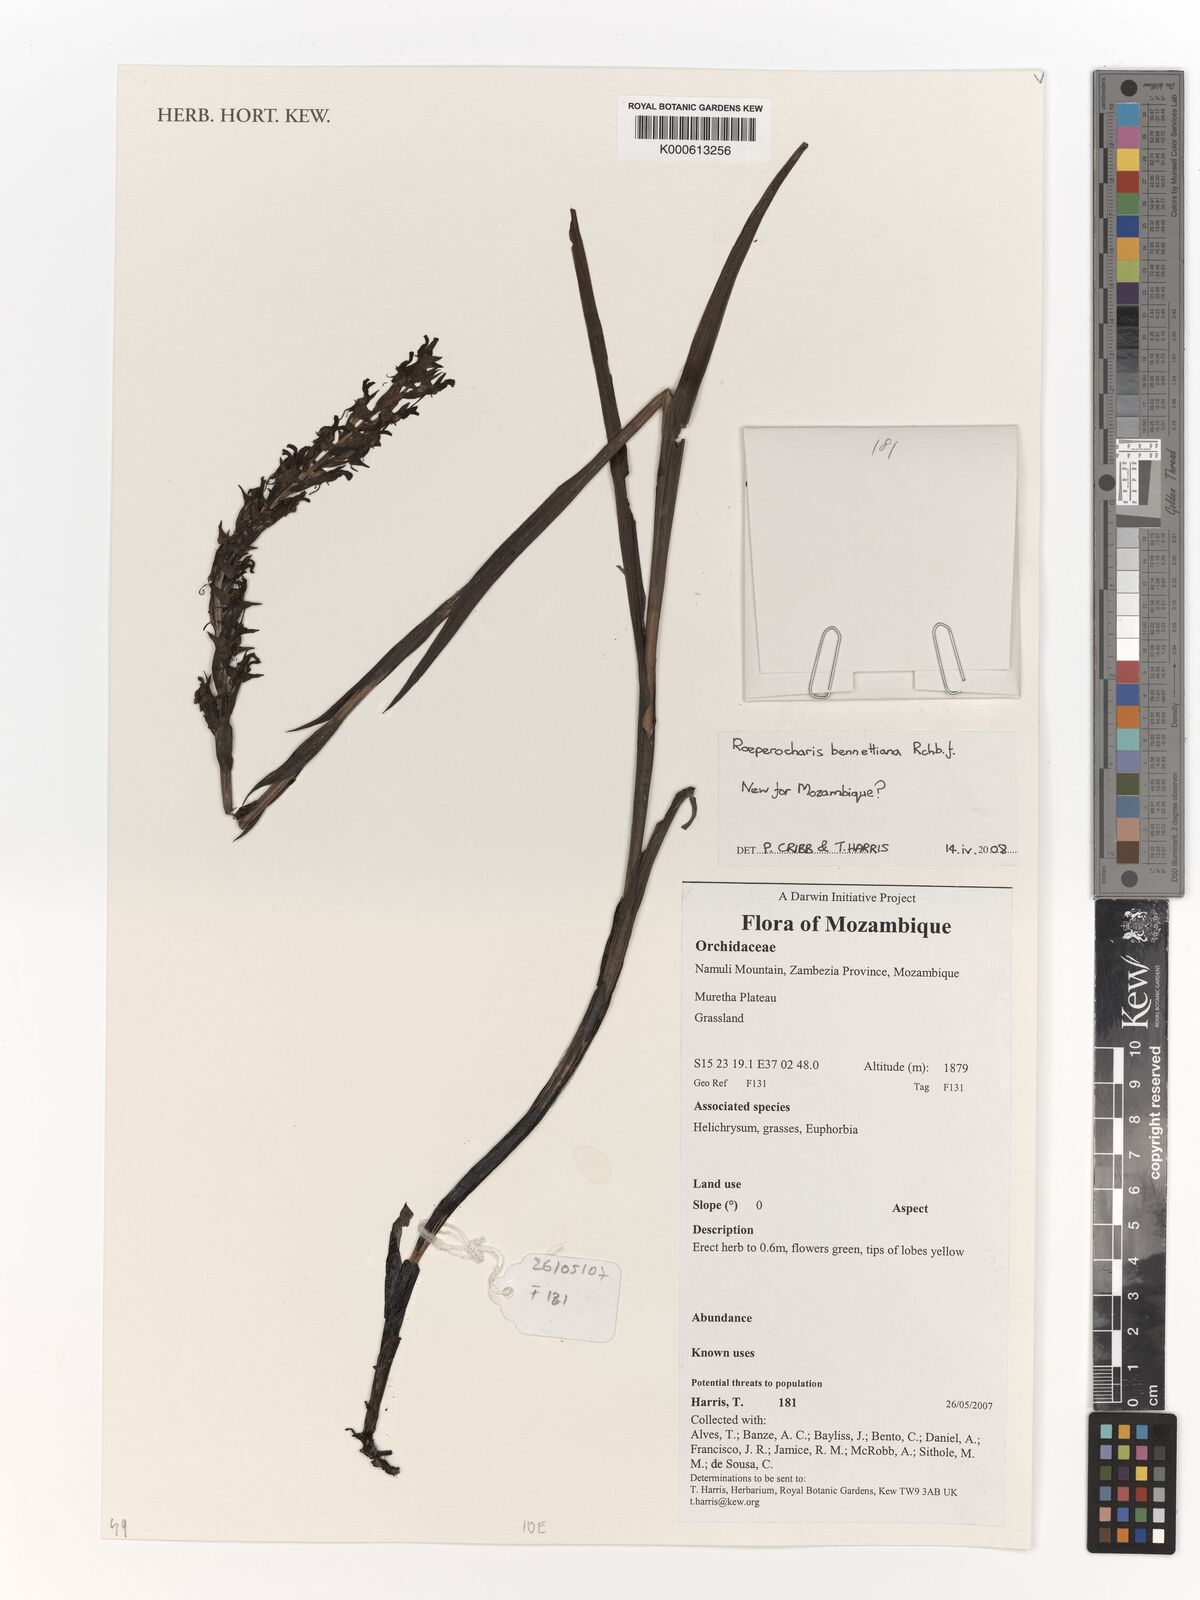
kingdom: Plantae
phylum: Tracheophyta
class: Liliopsida
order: Asparagales
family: Orchidaceae
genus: Roeperocharis
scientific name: Roeperocharis bennettiana
